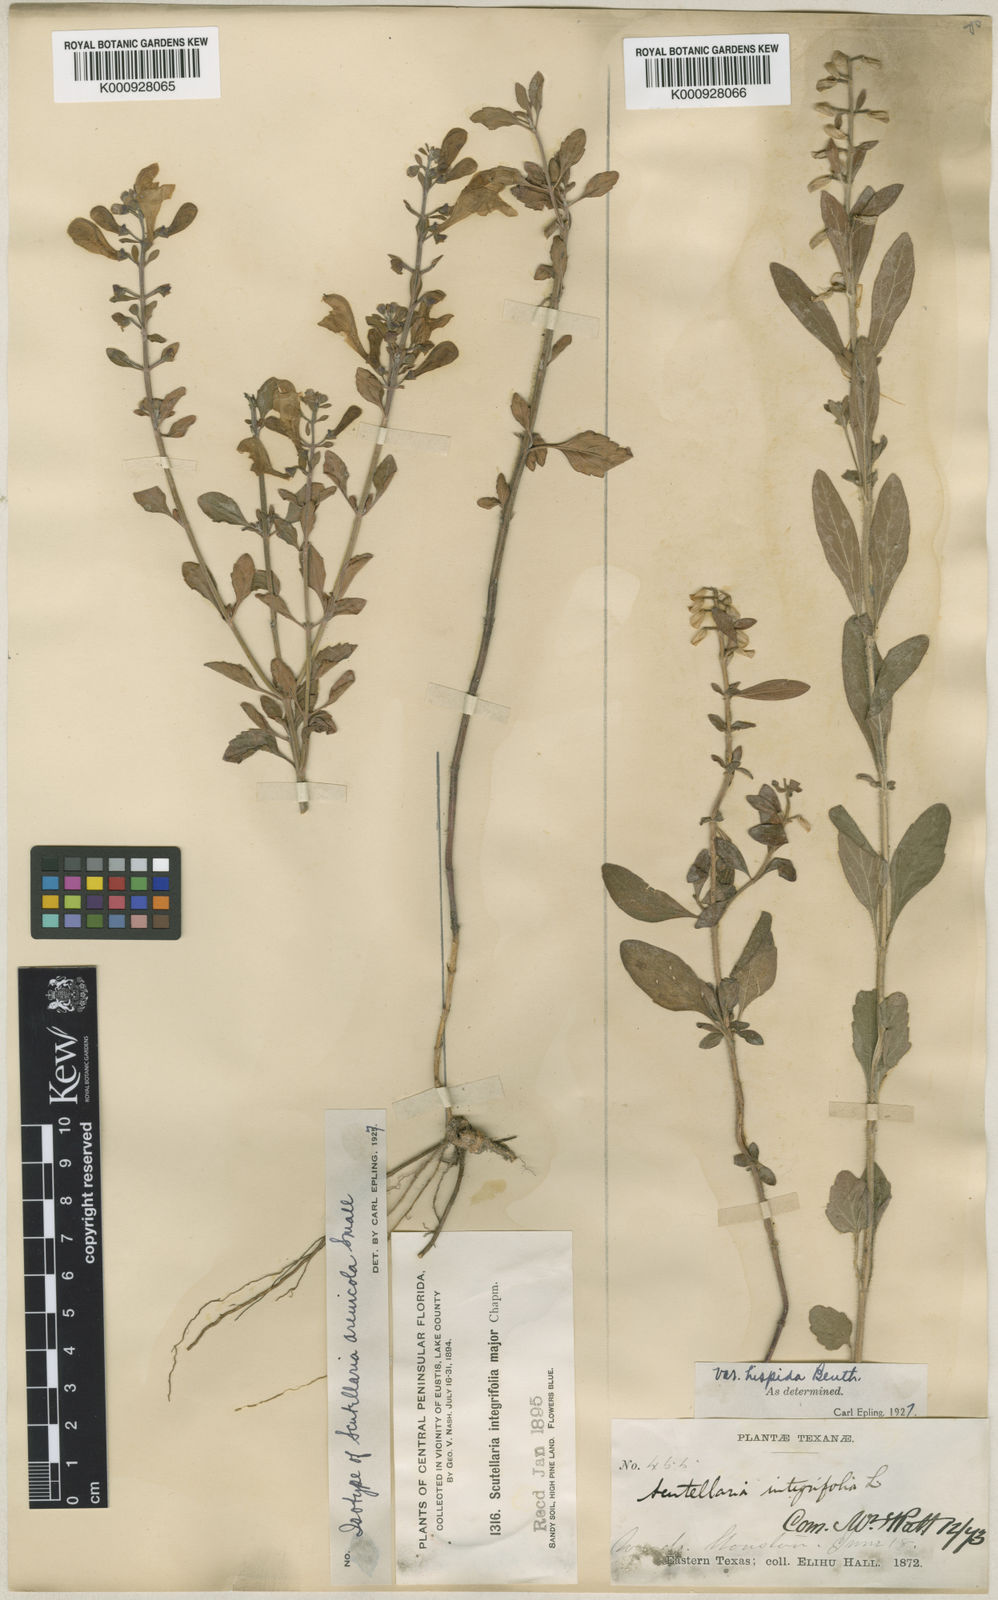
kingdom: Plantae
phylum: Tracheophyta
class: Magnoliopsida
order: Lamiales
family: Lamiaceae
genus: Scutellaria
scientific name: Scutellaria arenicola
